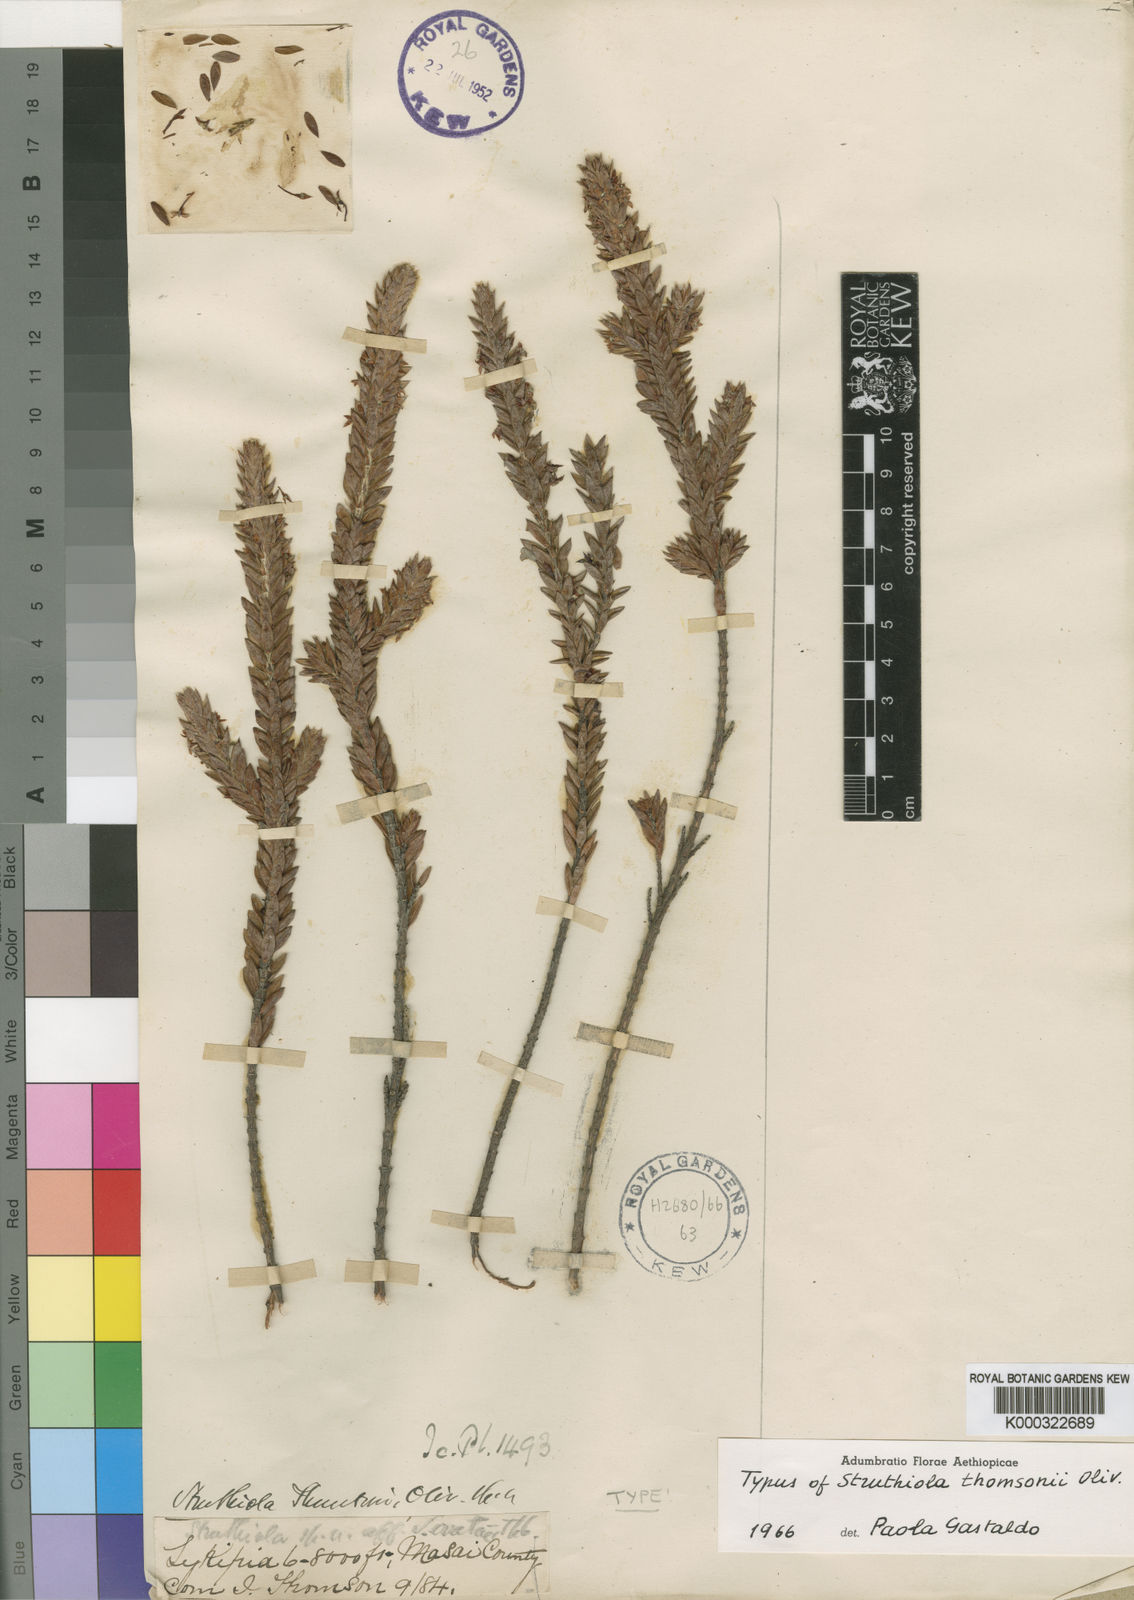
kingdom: Plantae
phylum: Tracheophyta
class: Magnoliopsida
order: Malvales
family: Thymelaeaceae
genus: Struthiola
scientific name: Struthiola thomsonii
